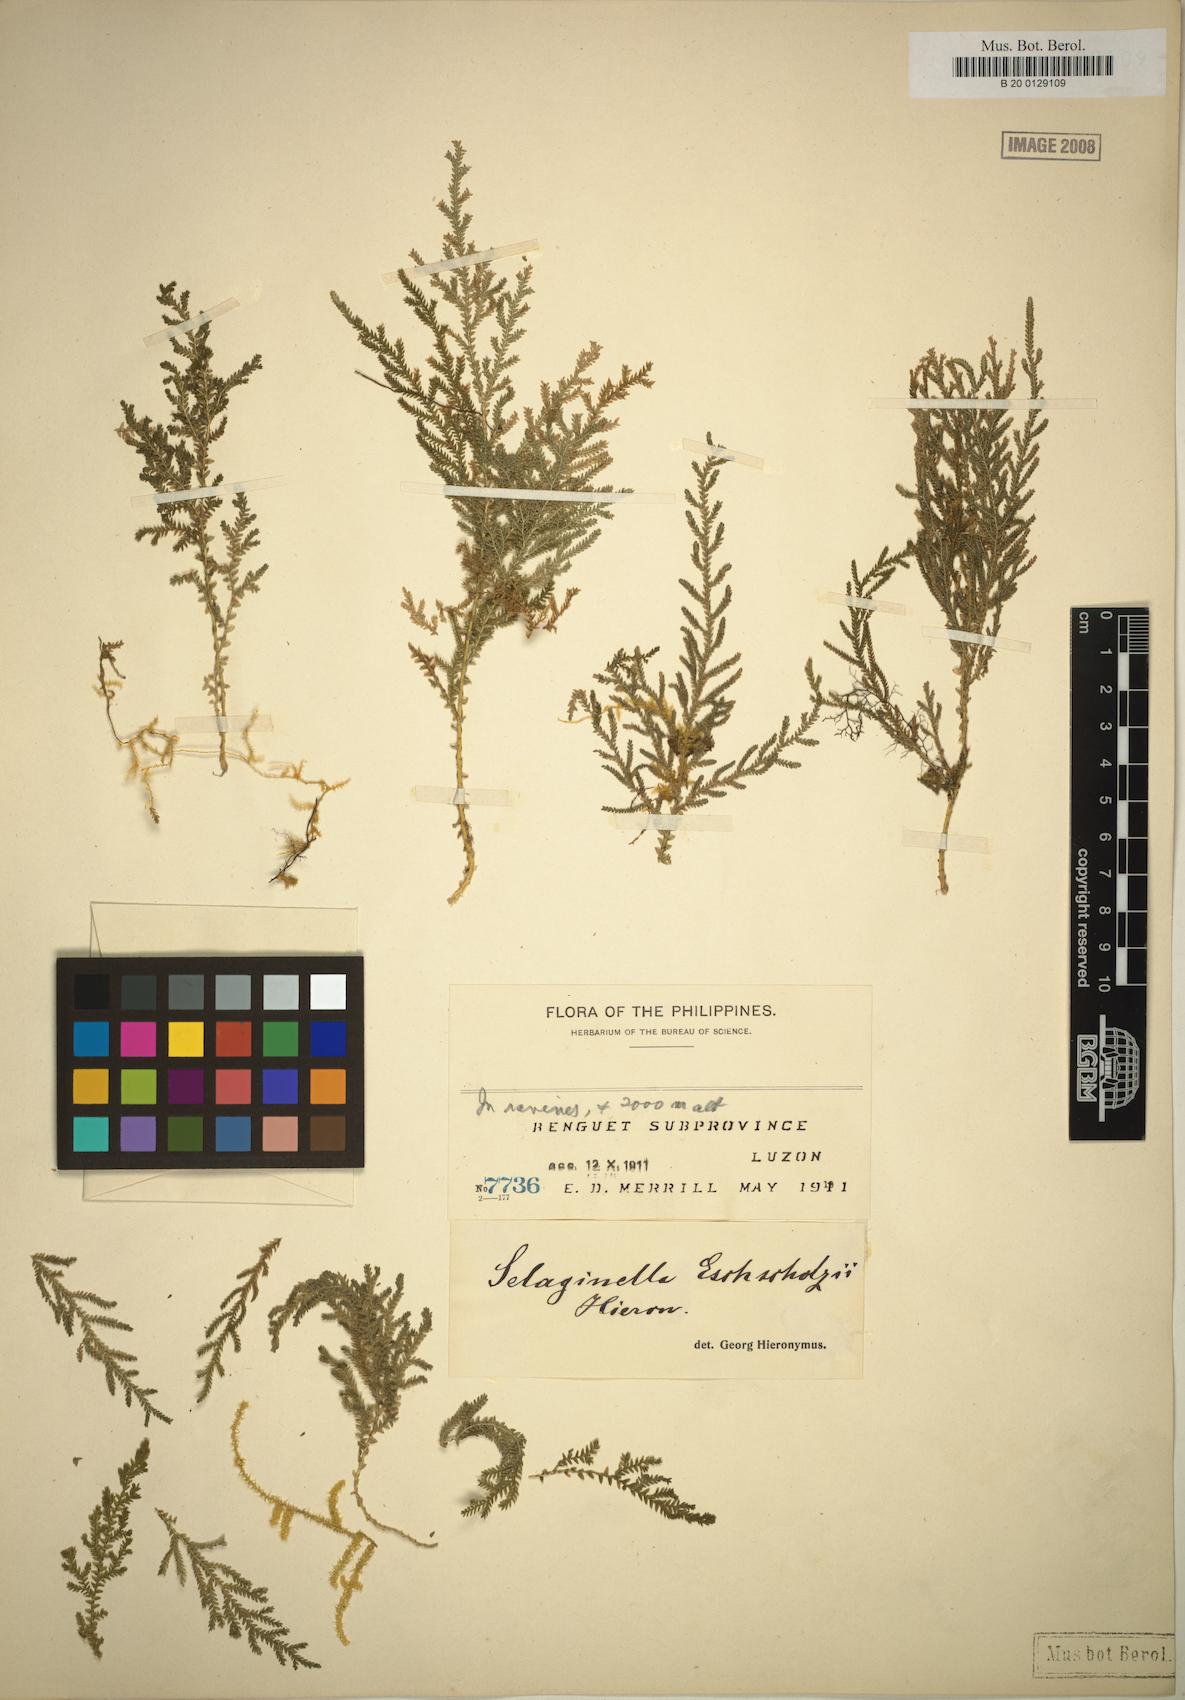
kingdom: Plantae
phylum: Tracheophyta
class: Lycopodiopsida
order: Selaginellales
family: Selaginellaceae
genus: Selaginella
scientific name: Selaginella eschscholzii
